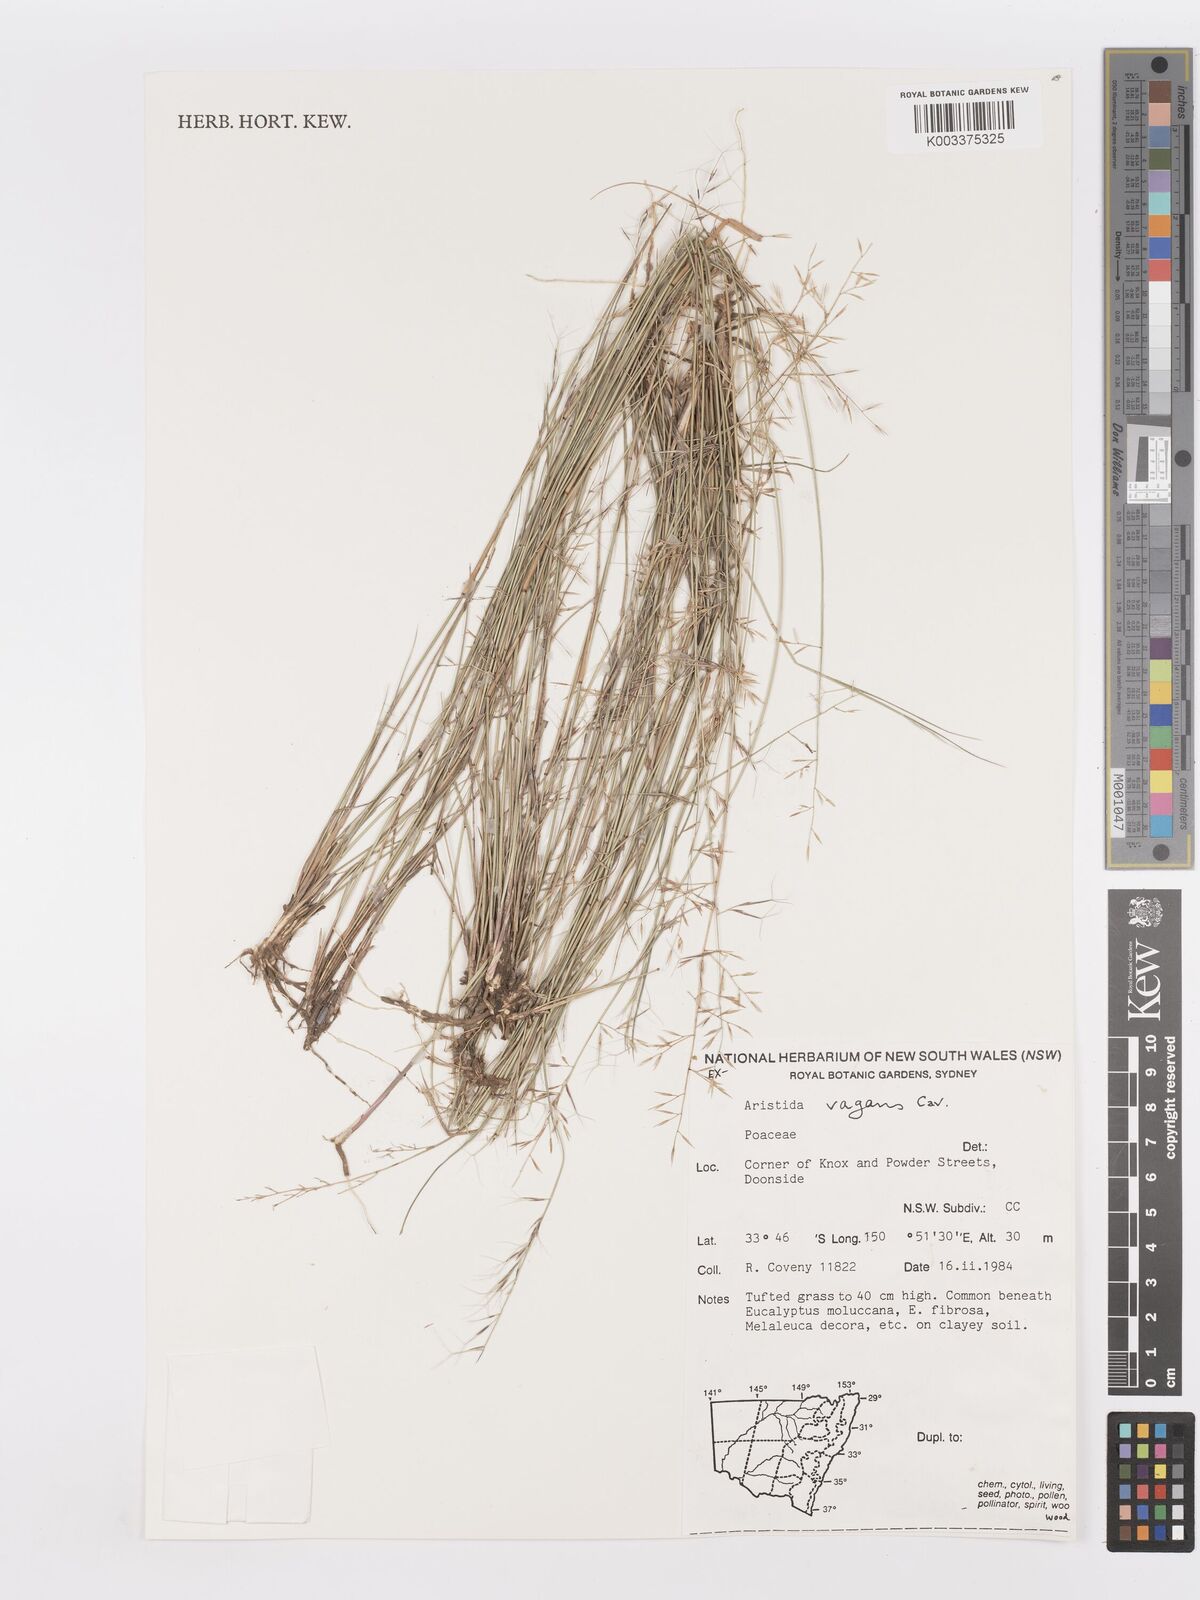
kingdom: Plantae
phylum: Tracheophyta
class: Liliopsida
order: Poales
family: Poaceae
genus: Aristida
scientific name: Aristida vagans
